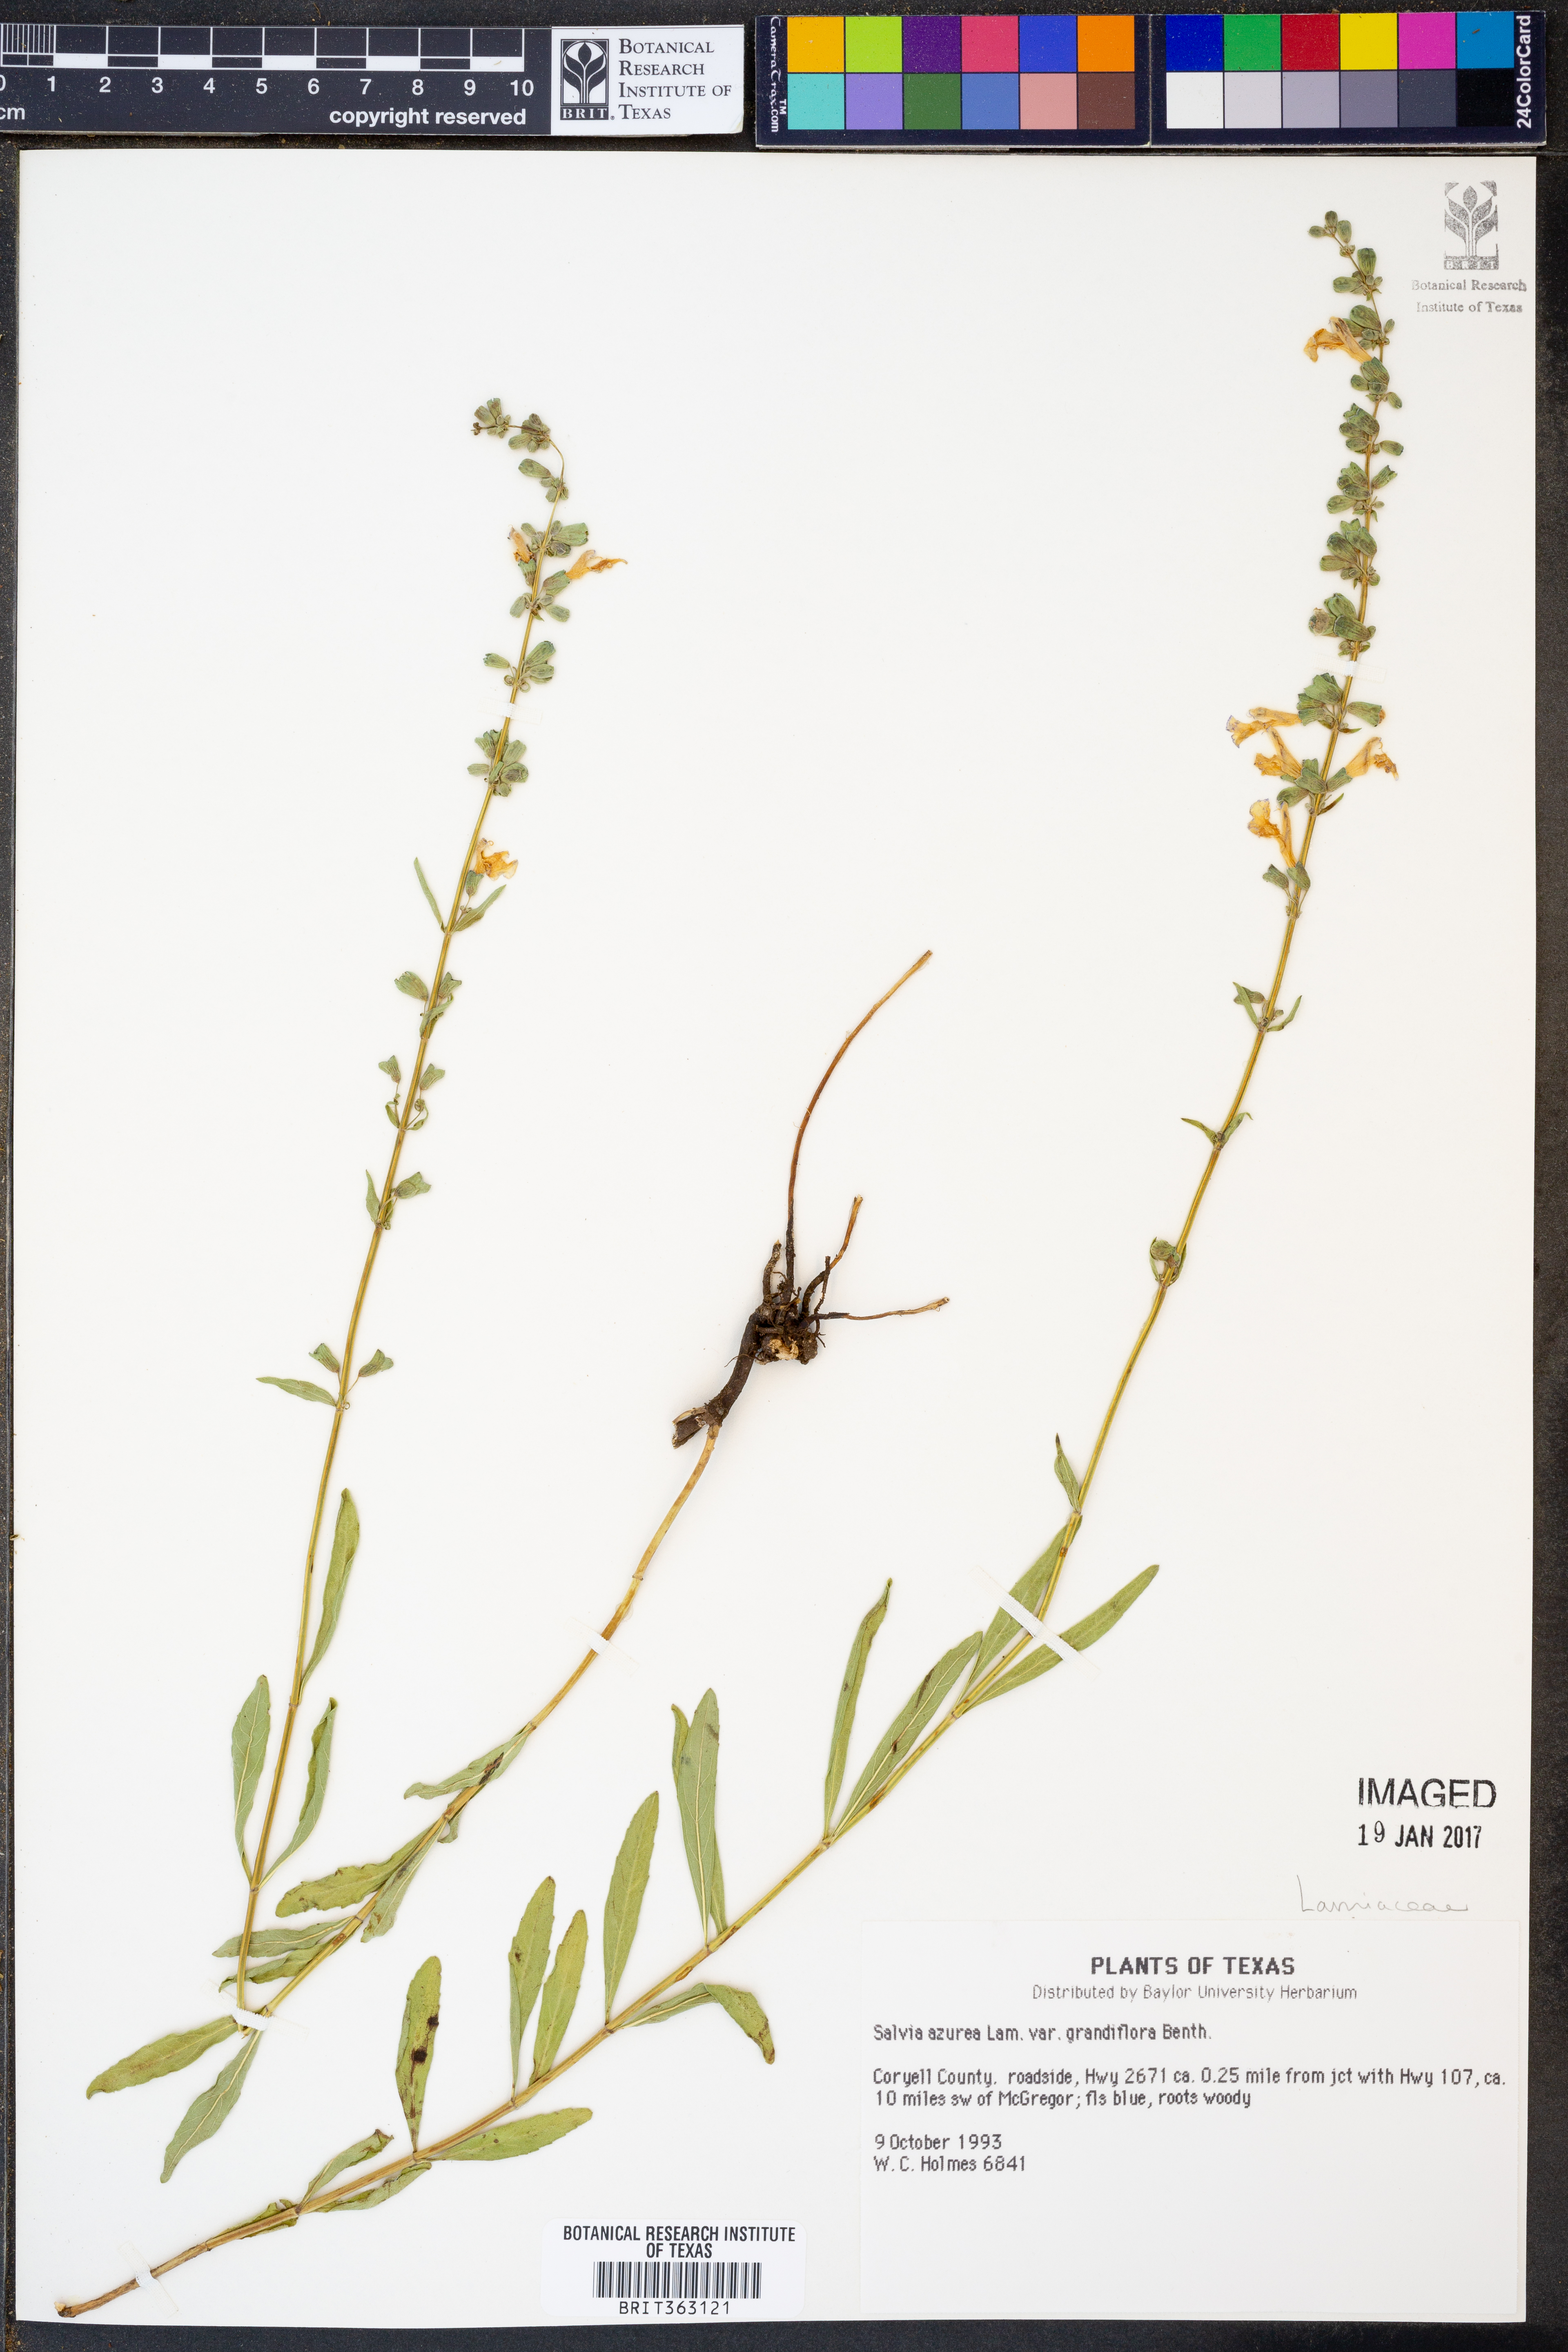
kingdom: Plantae
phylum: Tracheophyta
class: Magnoliopsida
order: Lamiales
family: Lamiaceae
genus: Salvia
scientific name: Salvia azurea
